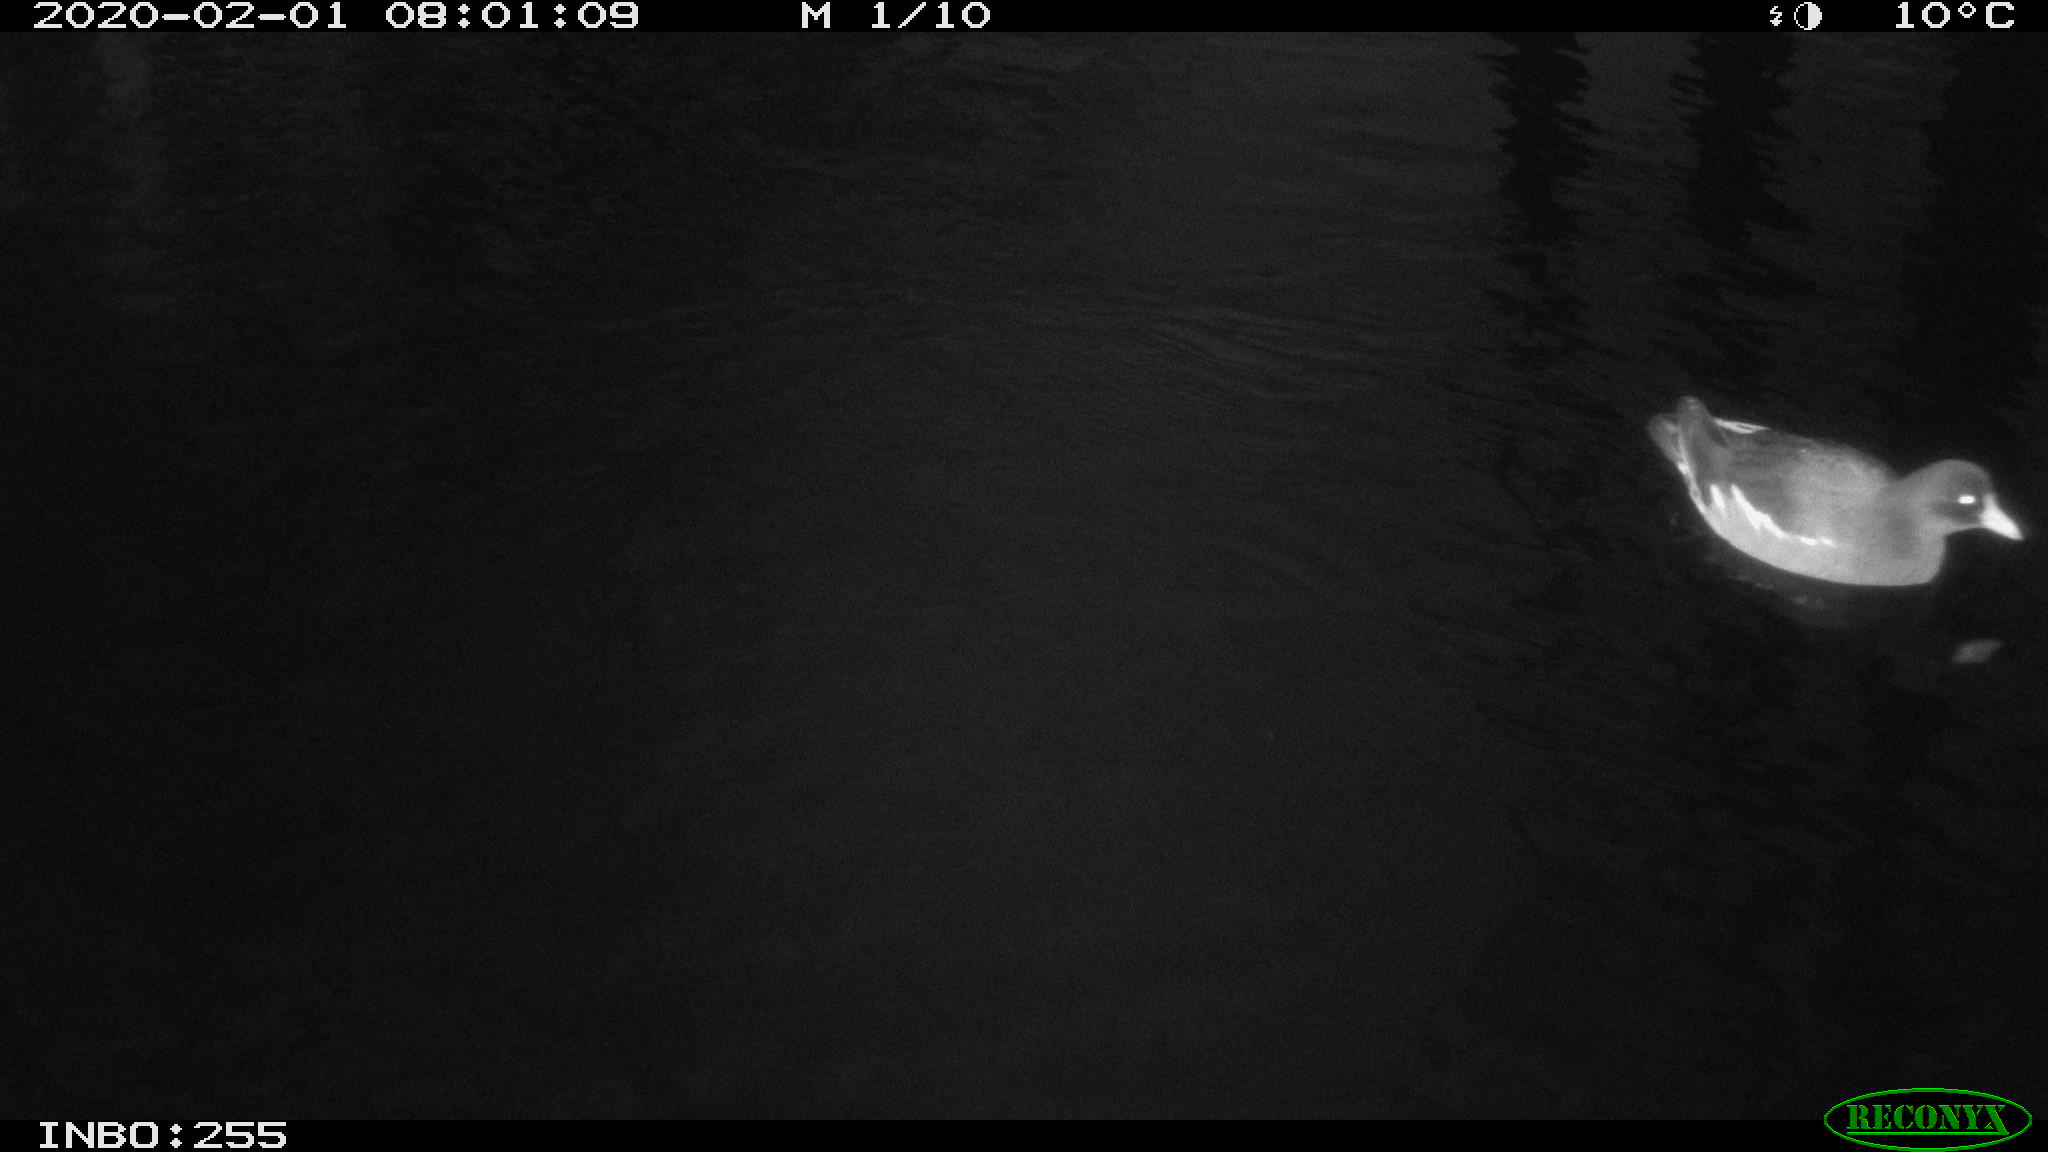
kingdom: Animalia
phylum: Chordata
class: Aves
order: Gruiformes
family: Rallidae
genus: Gallinula
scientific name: Gallinula chloropus
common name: Common moorhen
